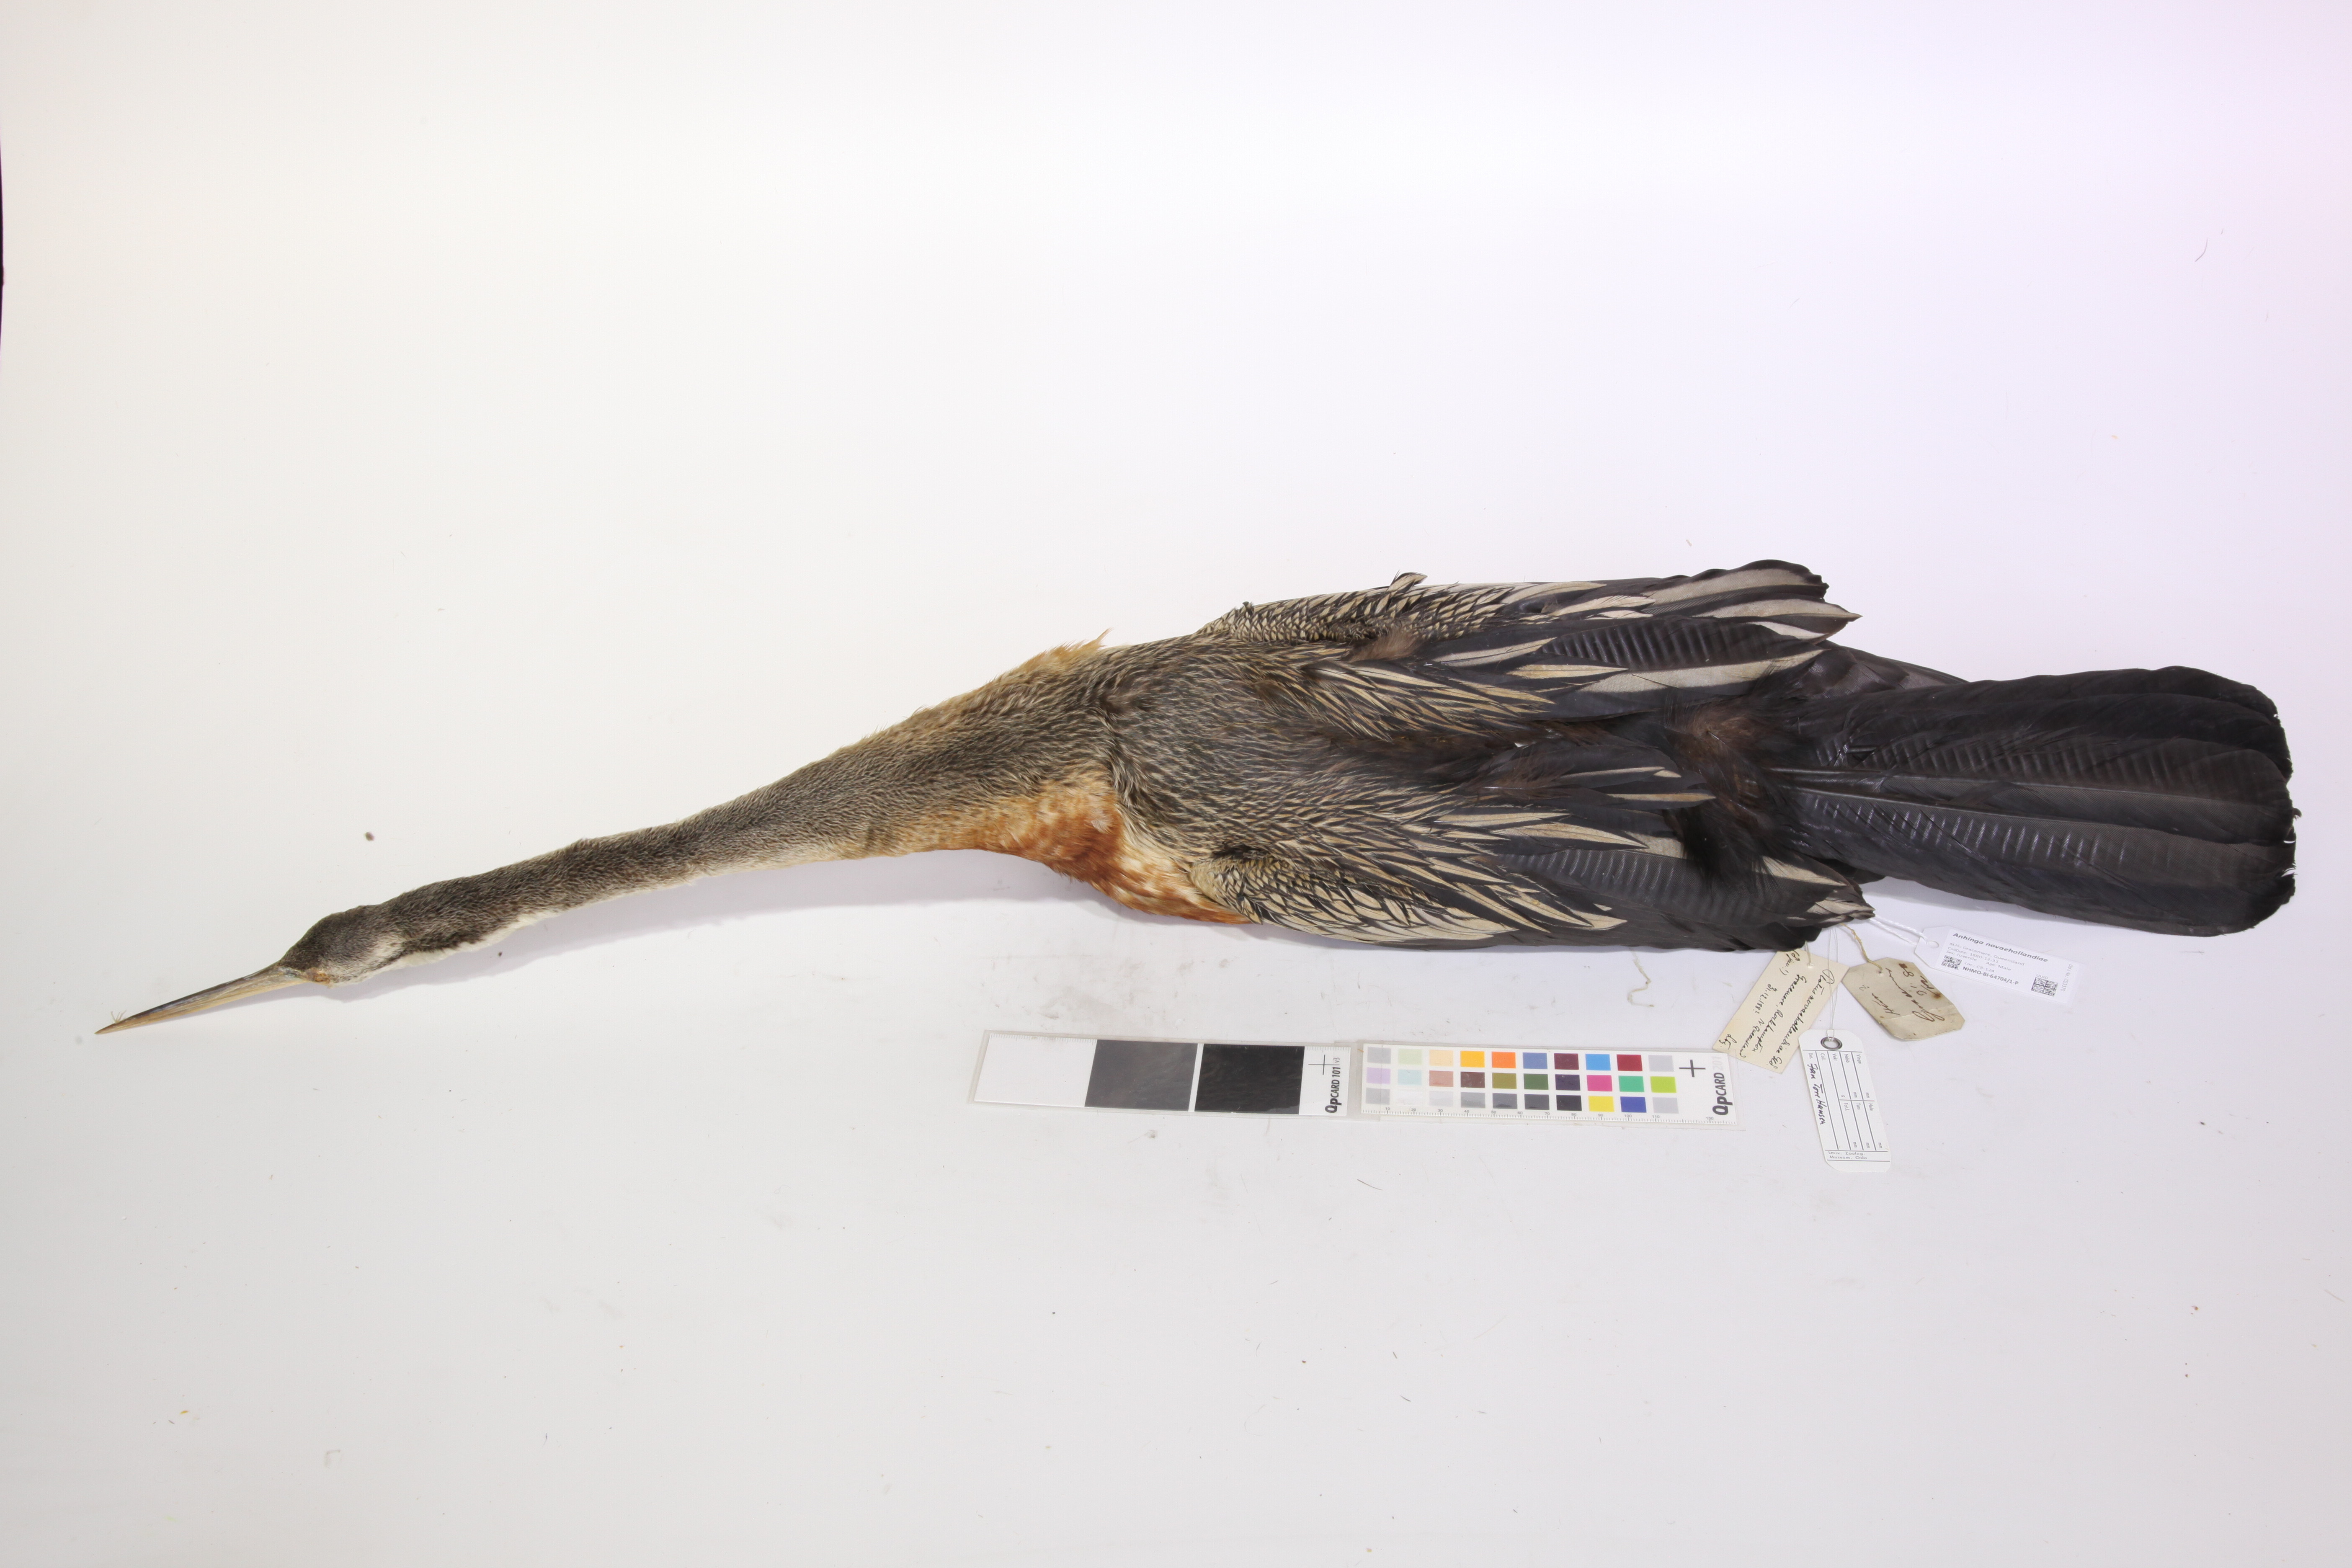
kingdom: Animalia
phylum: Chordata
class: Aves
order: Suliformes
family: Anhingidae
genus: Anhinga
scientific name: Anhinga novaehollandiae
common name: Australasian darter
